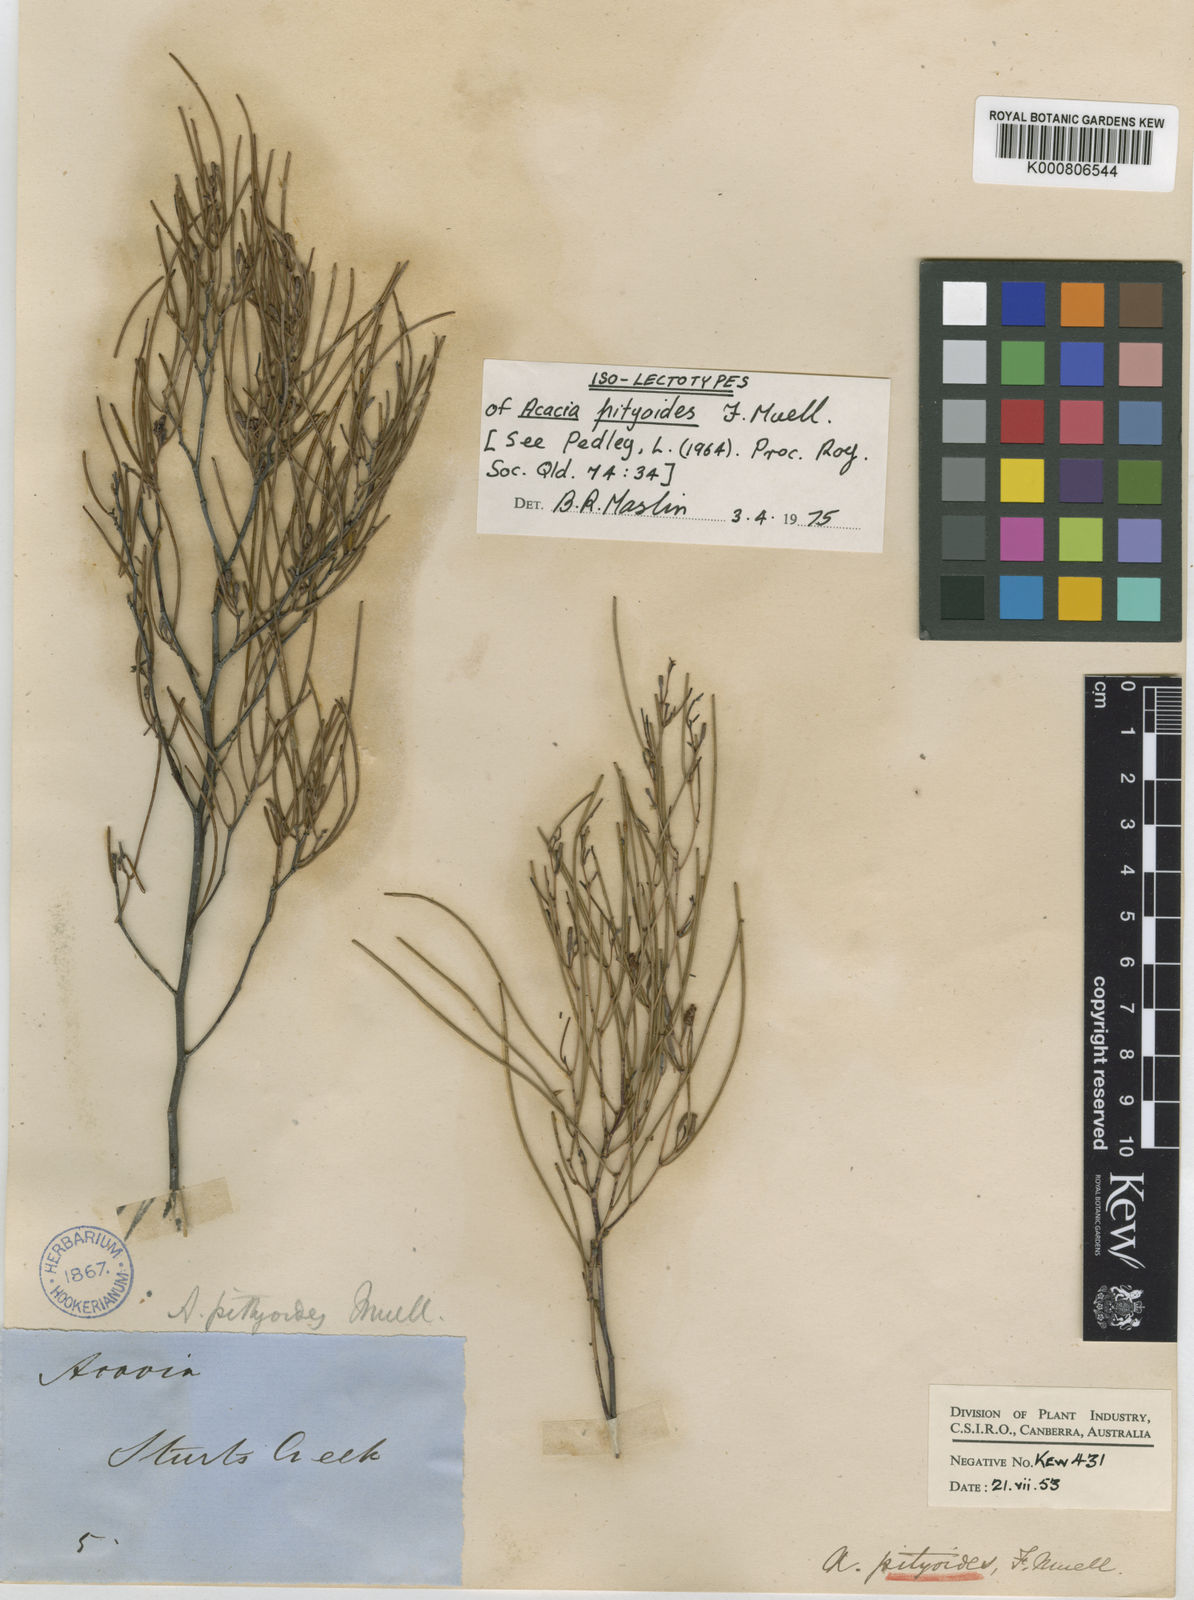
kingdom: Plantae
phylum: Tracheophyta
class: Magnoliopsida
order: Fabales
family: Fabaceae
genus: Acacia
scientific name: Acacia
